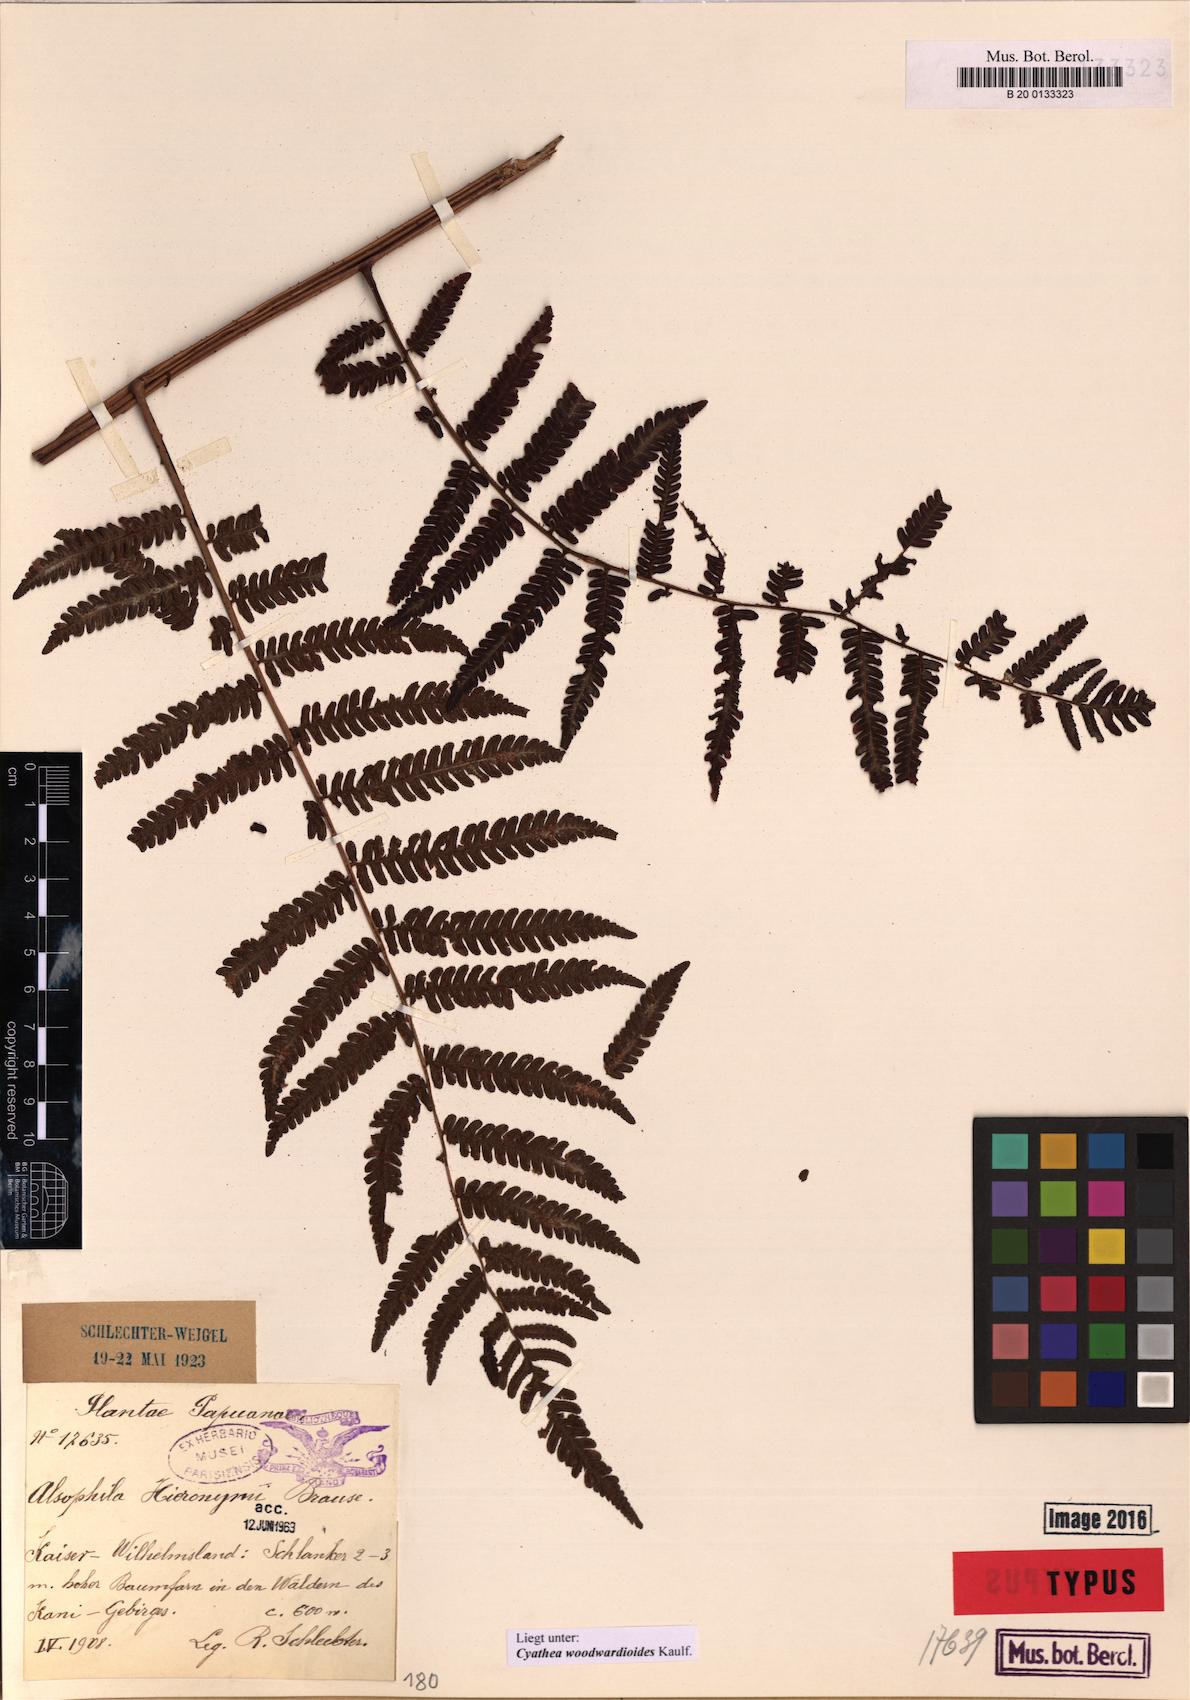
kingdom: Plantae
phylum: Tracheophyta
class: Polypodiopsida
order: Cyatheales
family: Cyatheaceae
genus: Alsophila
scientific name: Alsophila woodwardioides
